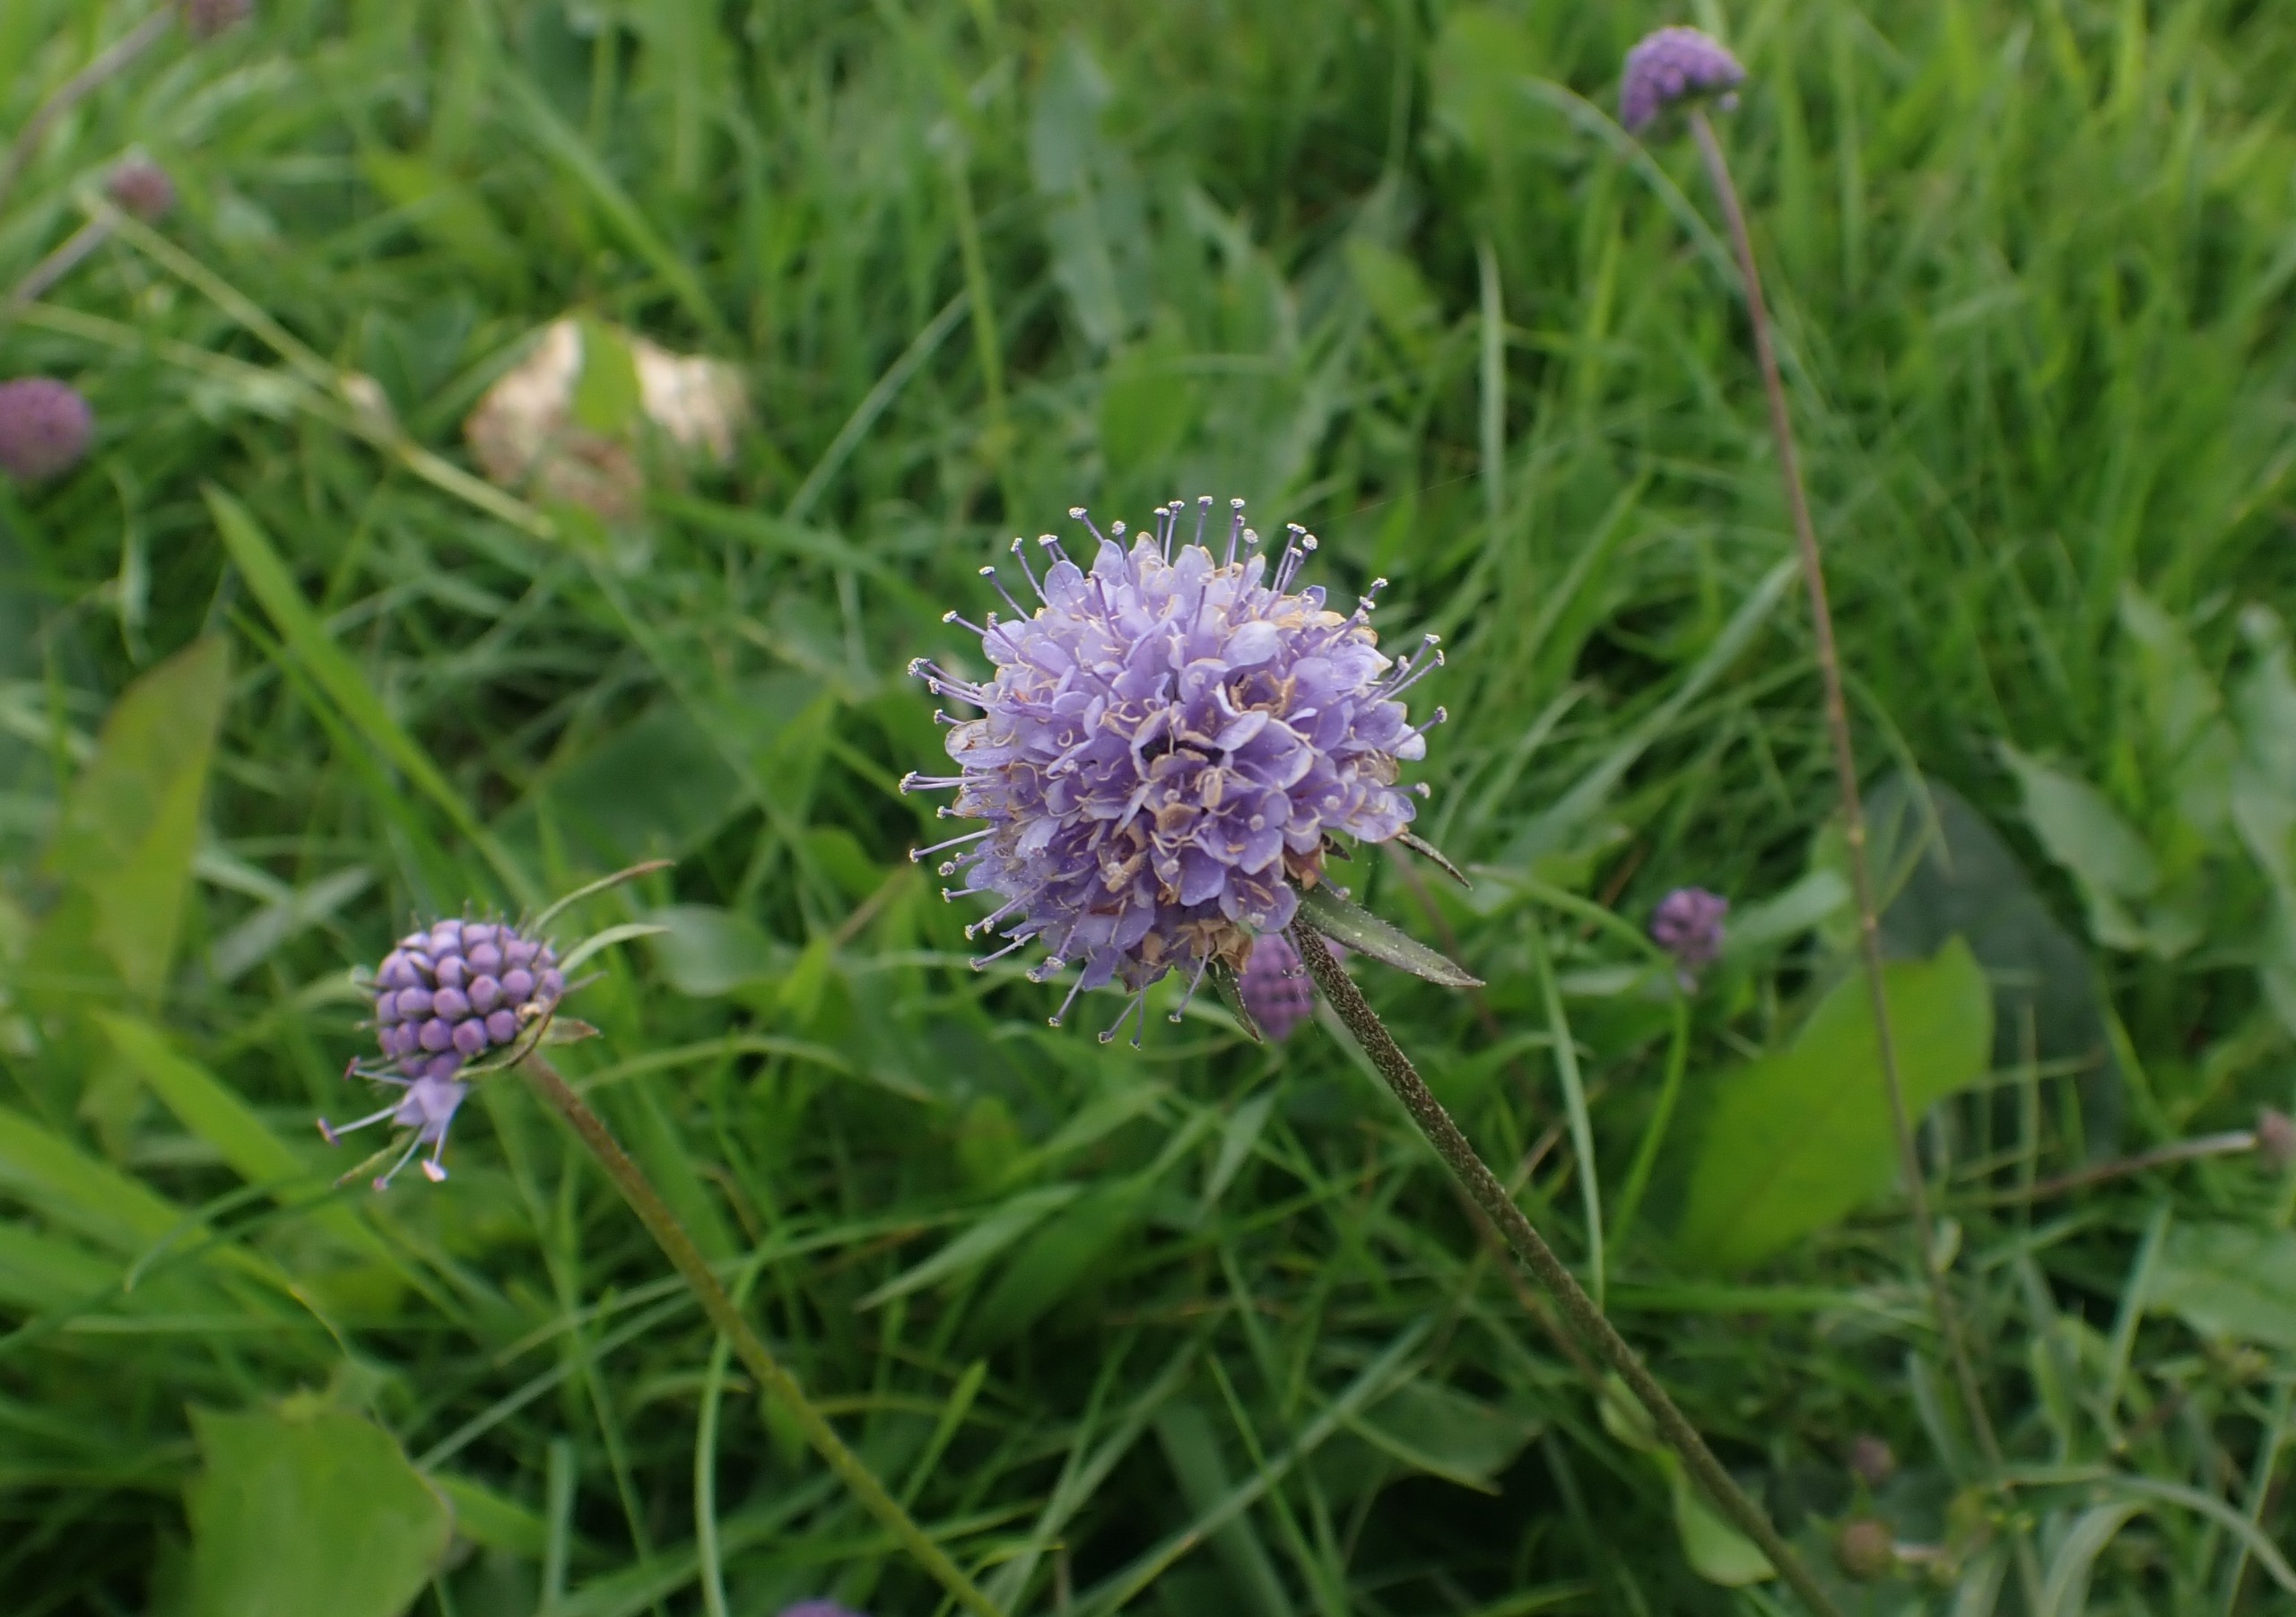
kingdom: Plantae
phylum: Tracheophyta
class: Magnoliopsida
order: Dipsacales
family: Caprifoliaceae
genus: Succisa
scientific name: Succisa pratensis
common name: Djævelsbid
